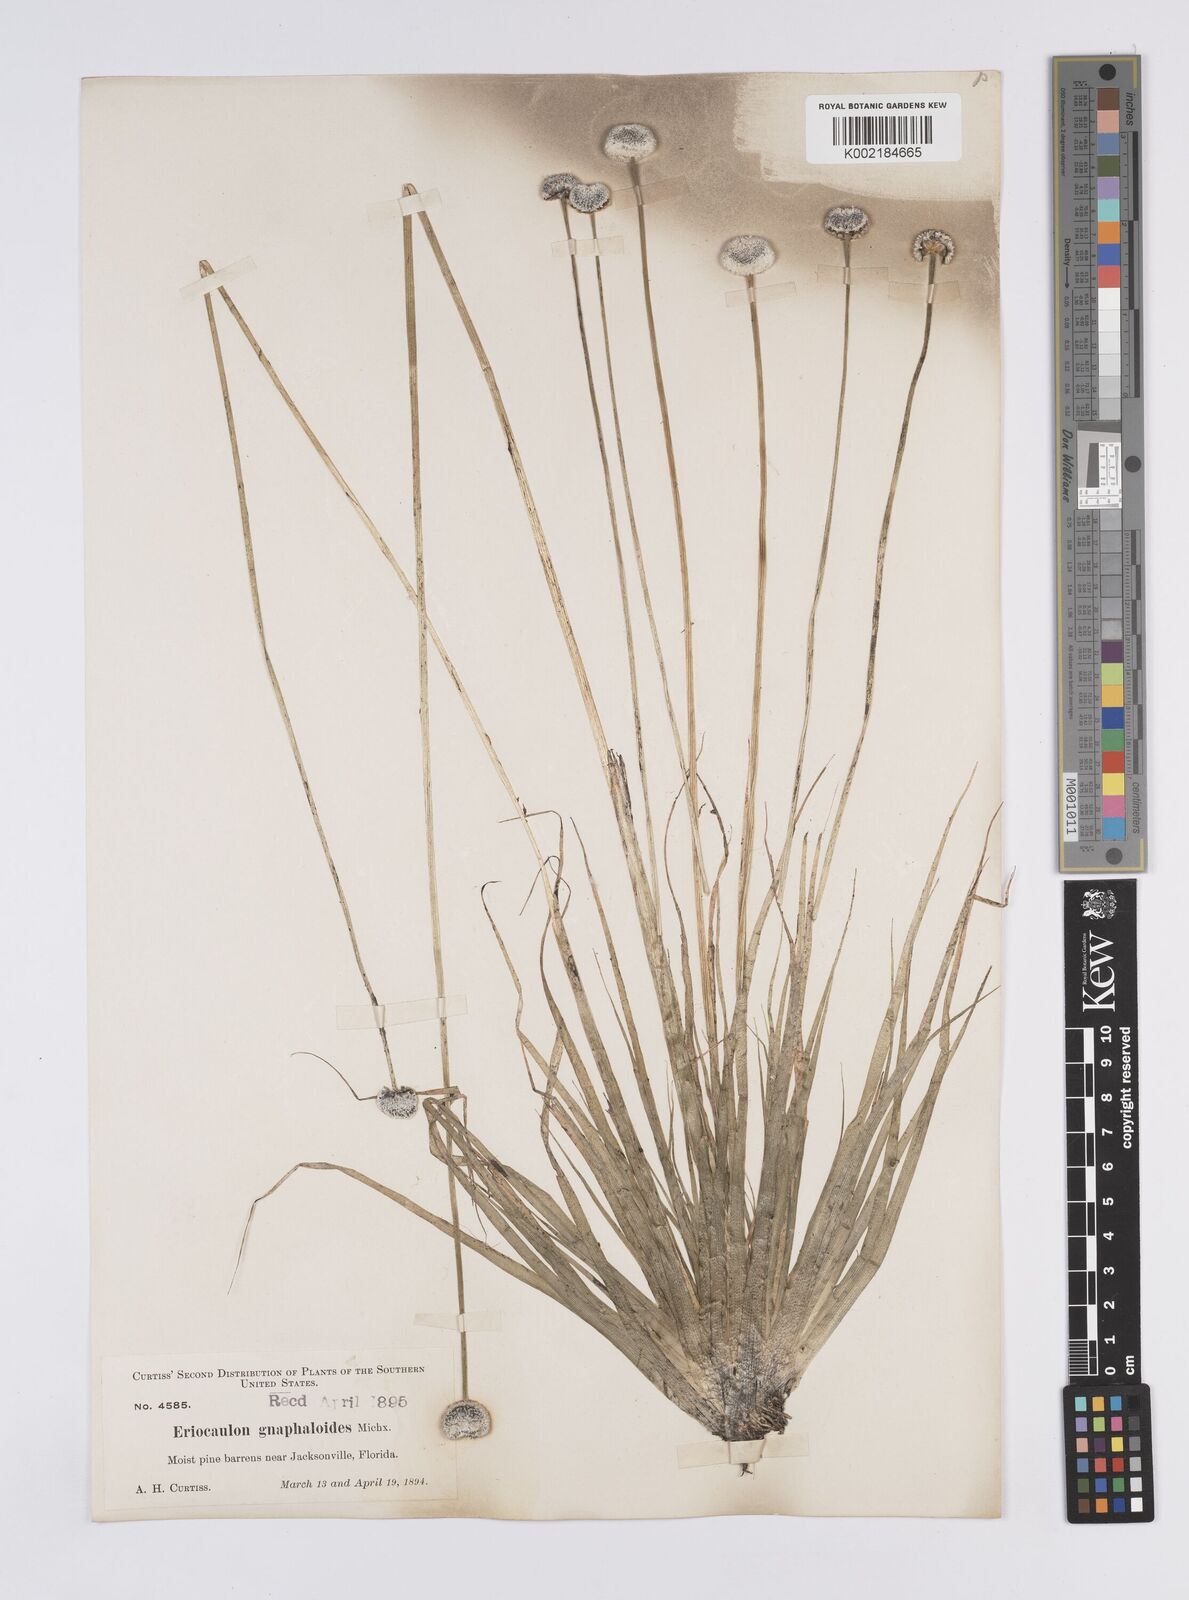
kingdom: Plantae
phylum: Tracheophyta
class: Liliopsida
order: Poales
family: Eriocaulaceae
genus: Eriocaulon
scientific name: Eriocaulon compressum
